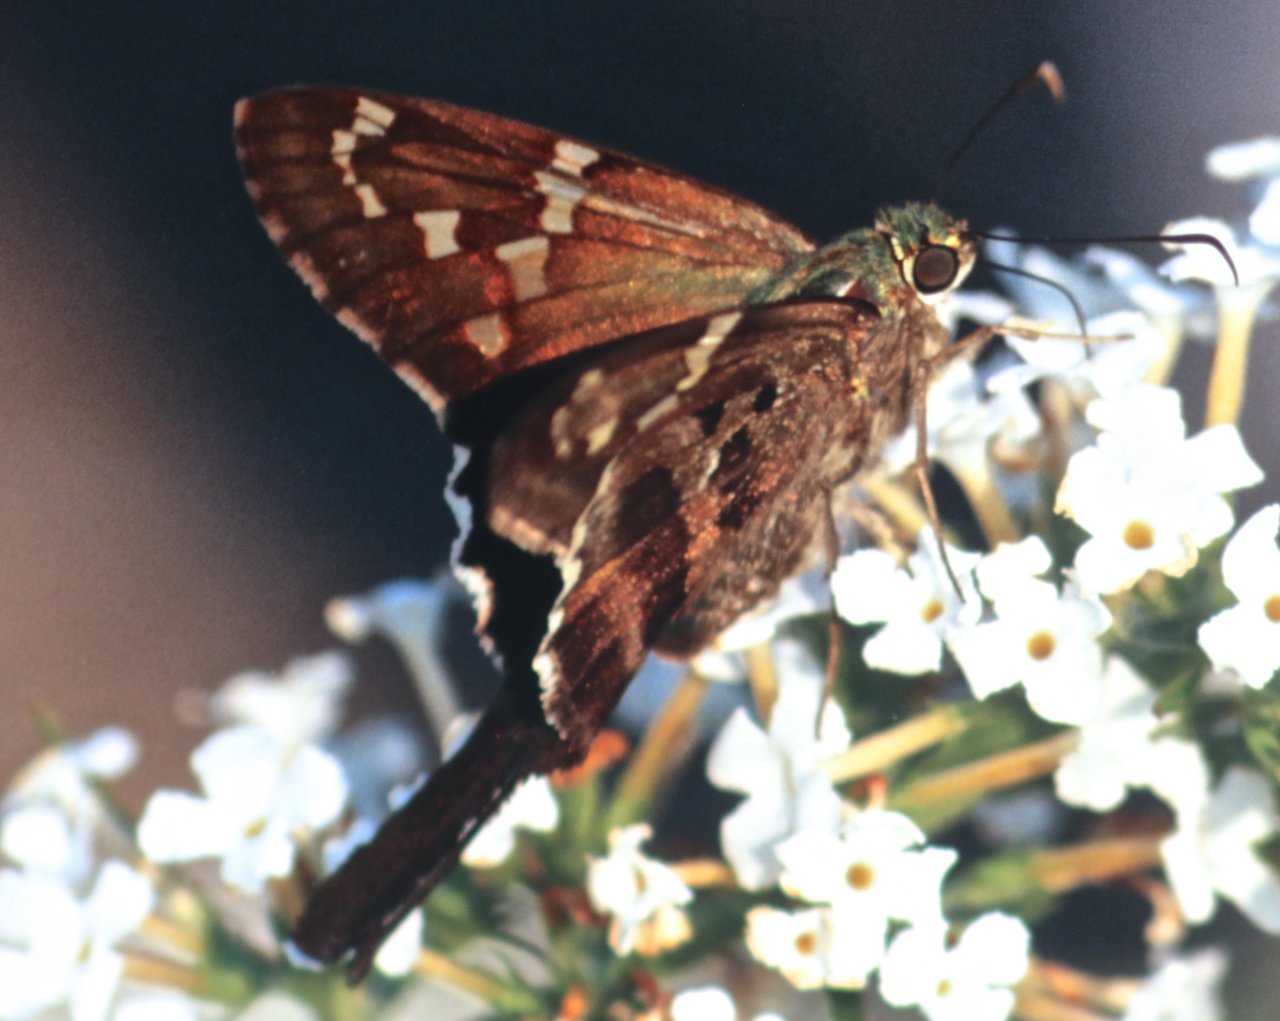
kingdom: Animalia
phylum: Arthropoda
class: Insecta
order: Lepidoptera
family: Hesperiidae
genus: Urbanus
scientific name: Urbanus proteus
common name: Long-tailed Skipper
